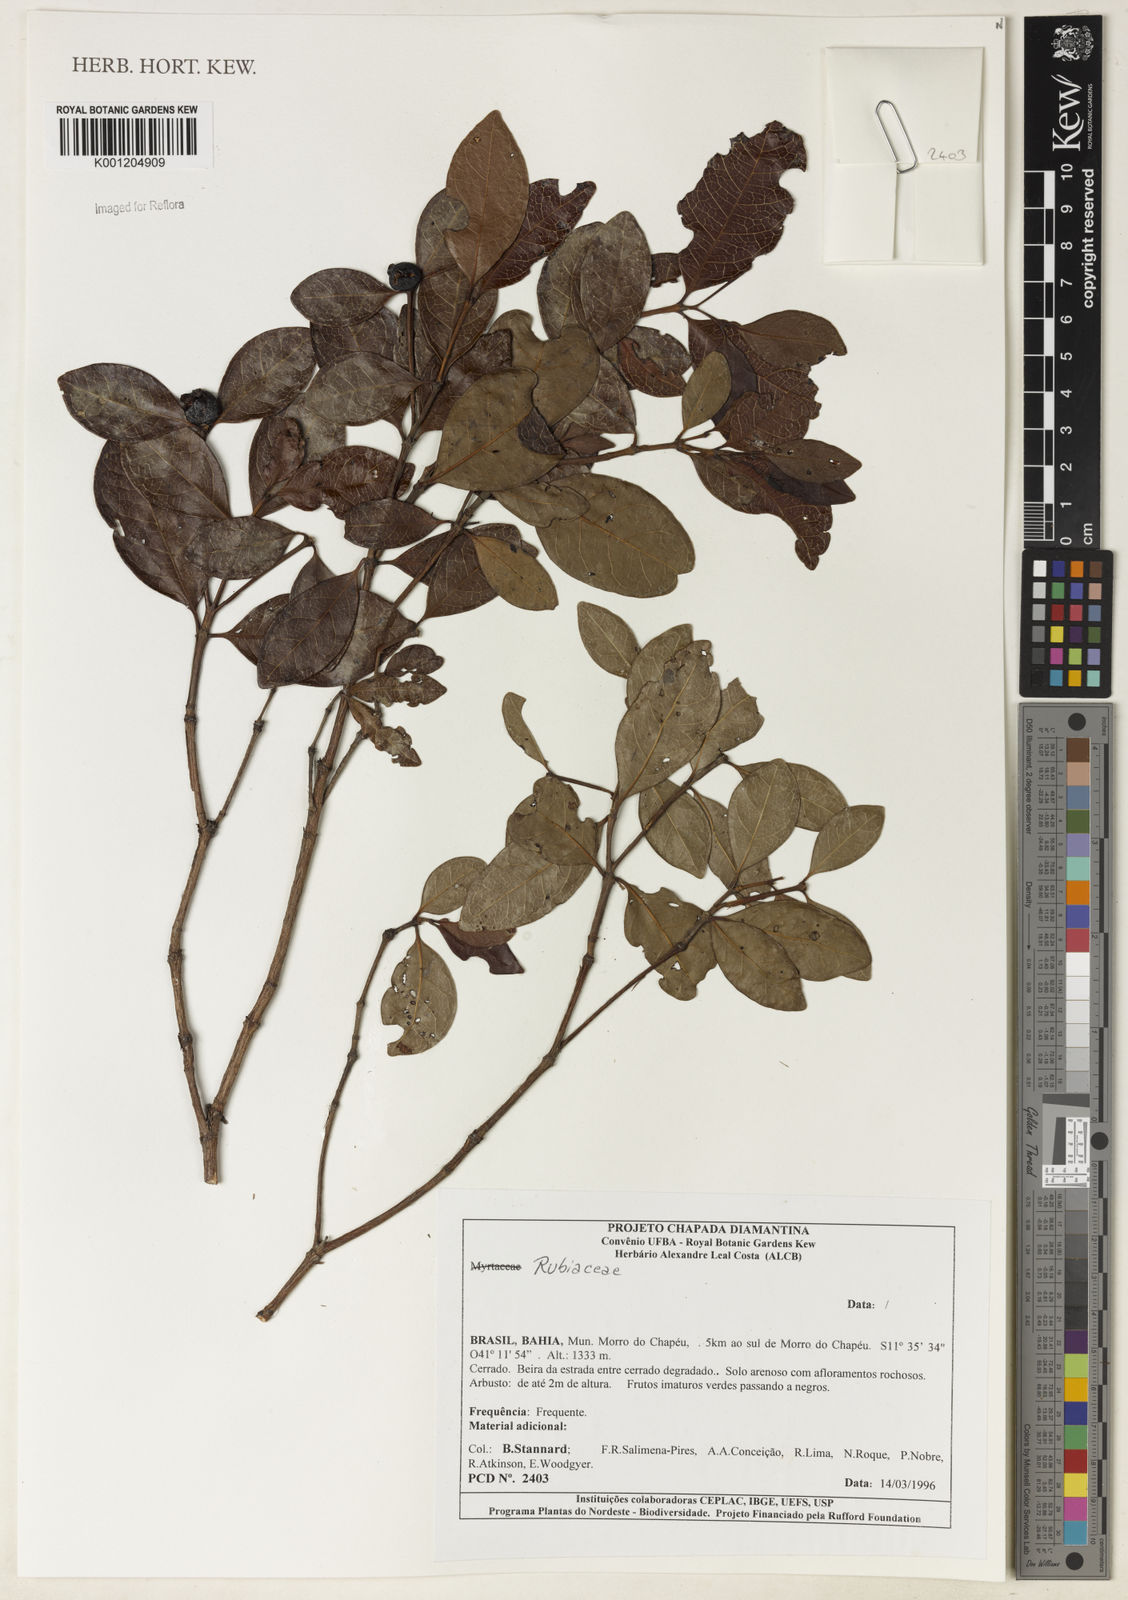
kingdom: Plantae
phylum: Tracheophyta
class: Magnoliopsida
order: Gentianales
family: Rubiaceae
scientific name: Rubiaceae
